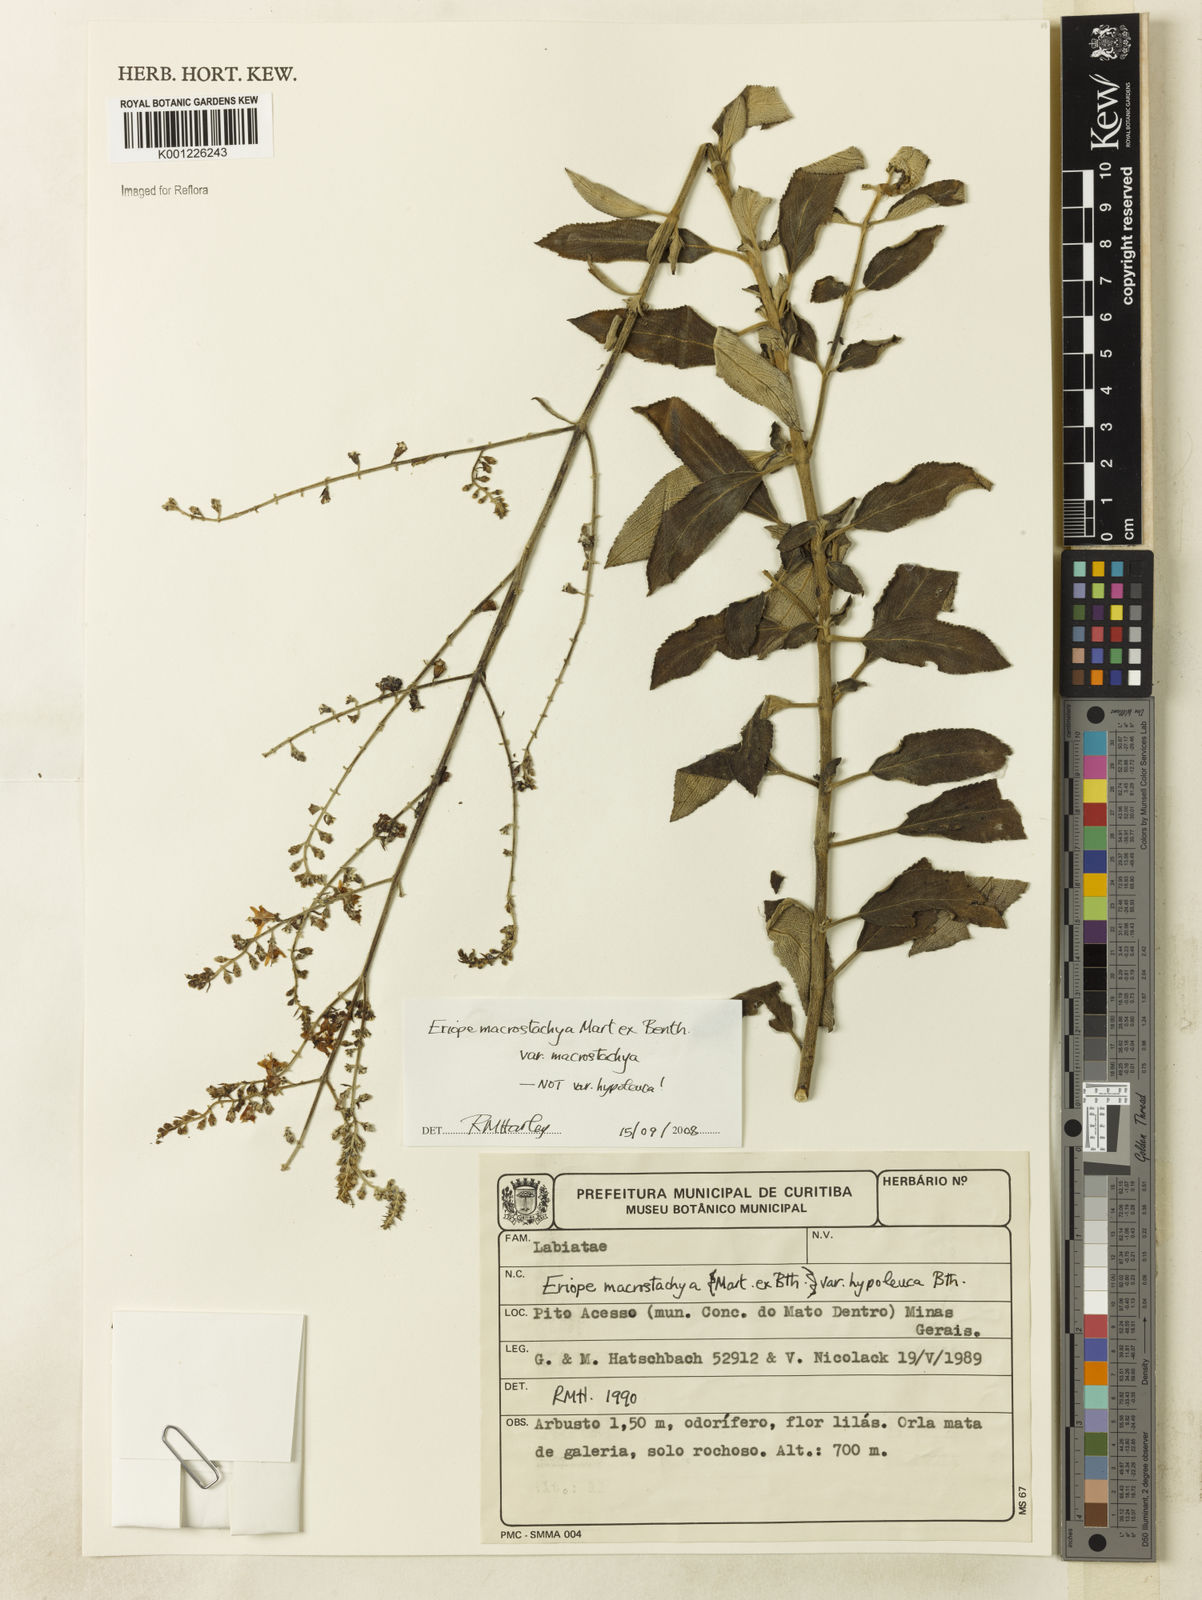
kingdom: Plantae
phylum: Tracheophyta
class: Magnoliopsida
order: Lamiales
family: Lamiaceae
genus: Eriope
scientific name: Eriope macrostachya
